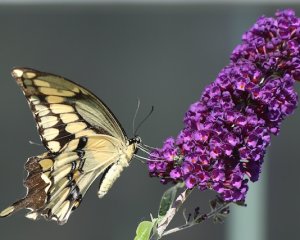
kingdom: Animalia
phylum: Arthropoda
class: Insecta
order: Lepidoptera
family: Papilionidae
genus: Papilio
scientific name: Papilio cresphontes
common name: Eastern Giant Swallowtail
